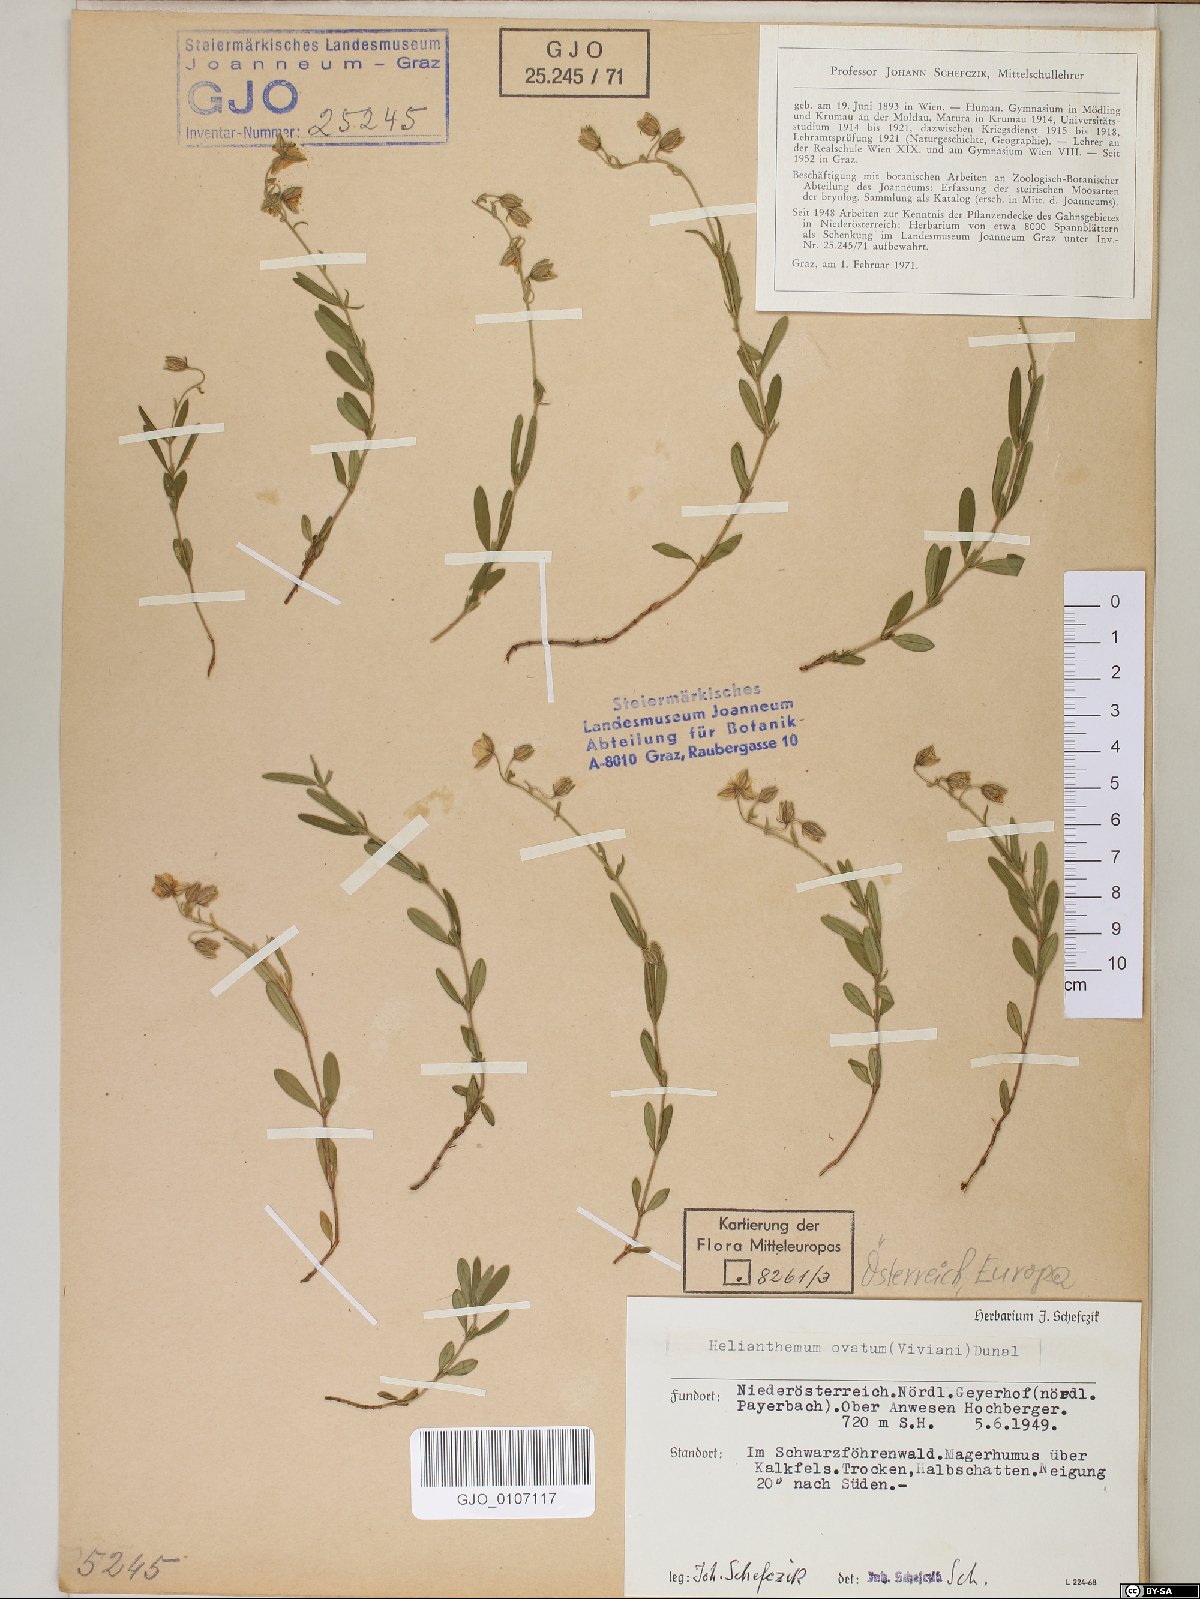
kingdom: Plantae
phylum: Tracheophyta
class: Magnoliopsida
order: Malvales
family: Cistaceae
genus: Helianthemum
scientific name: Helianthemum nummularium
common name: Common rock-rose
